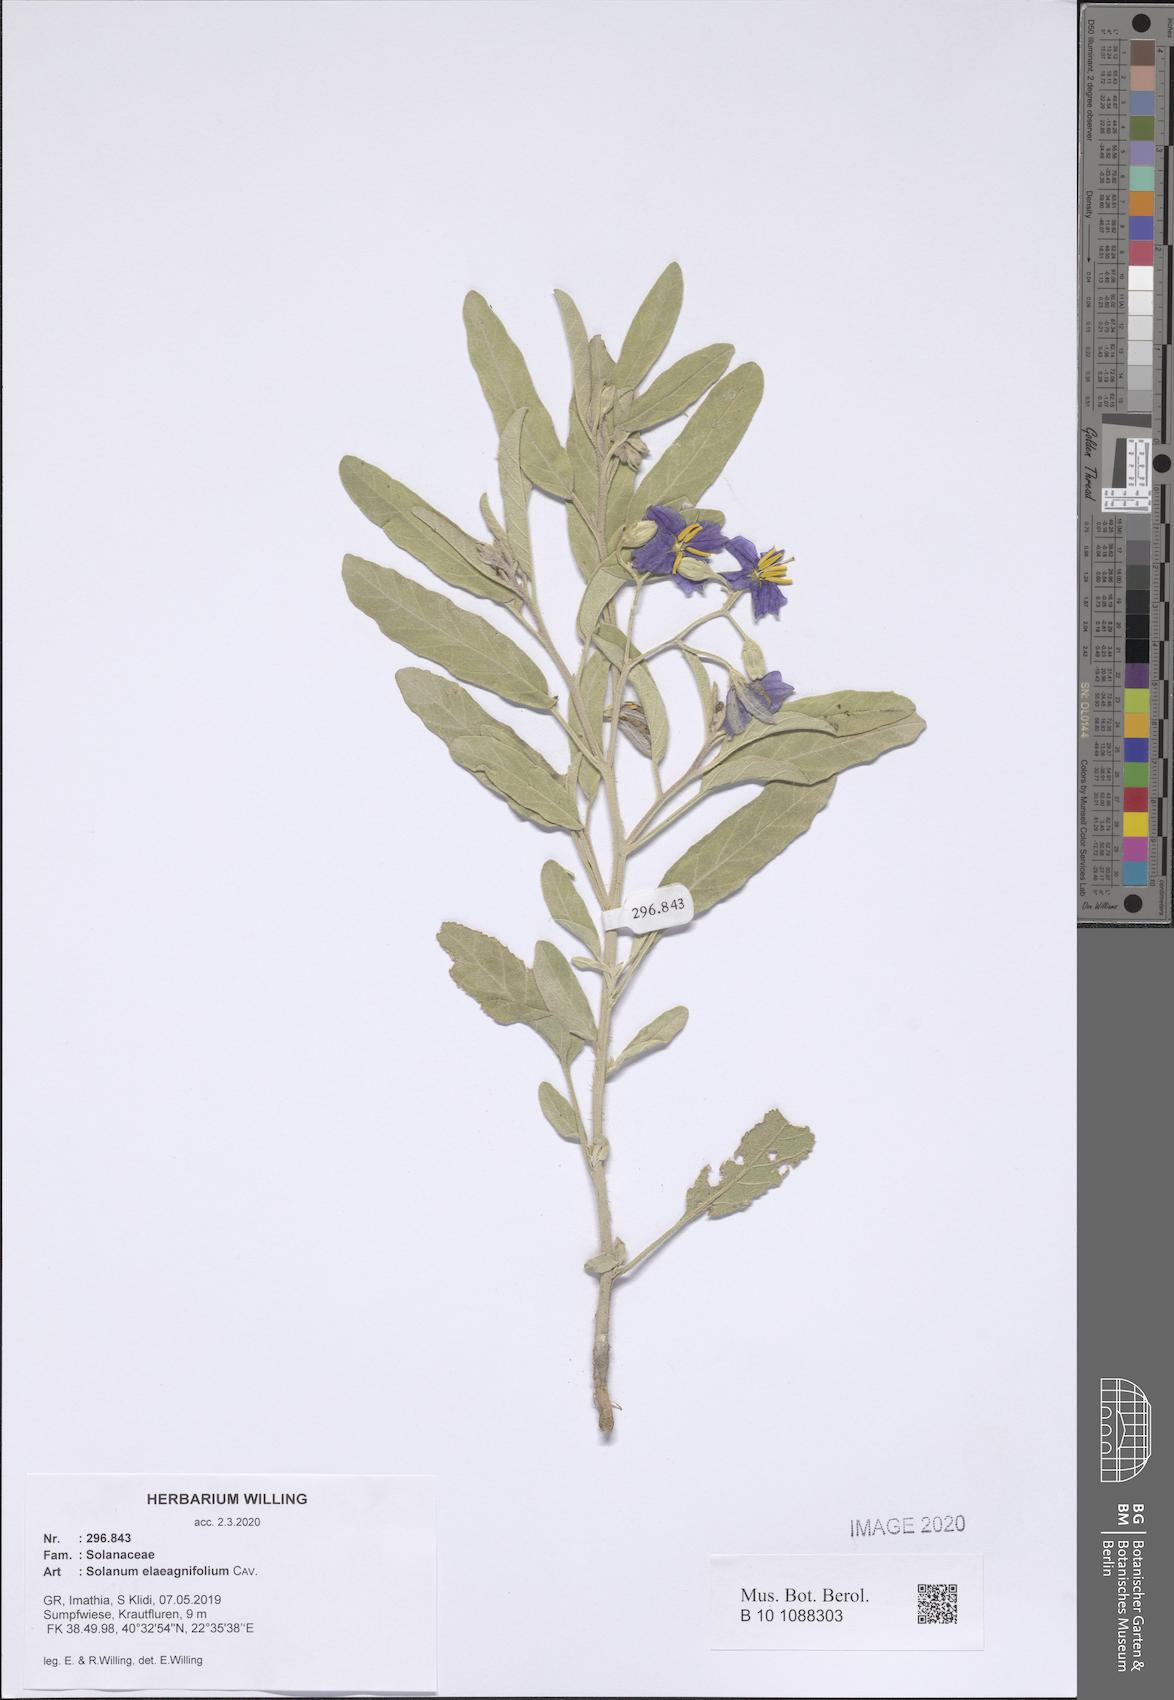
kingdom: Plantae
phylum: Tracheophyta
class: Magnoliopsida
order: Solanales
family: Solanaceae
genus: Solanum
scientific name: Solanum elaeagnifolium
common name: Silverleaf nightshade
